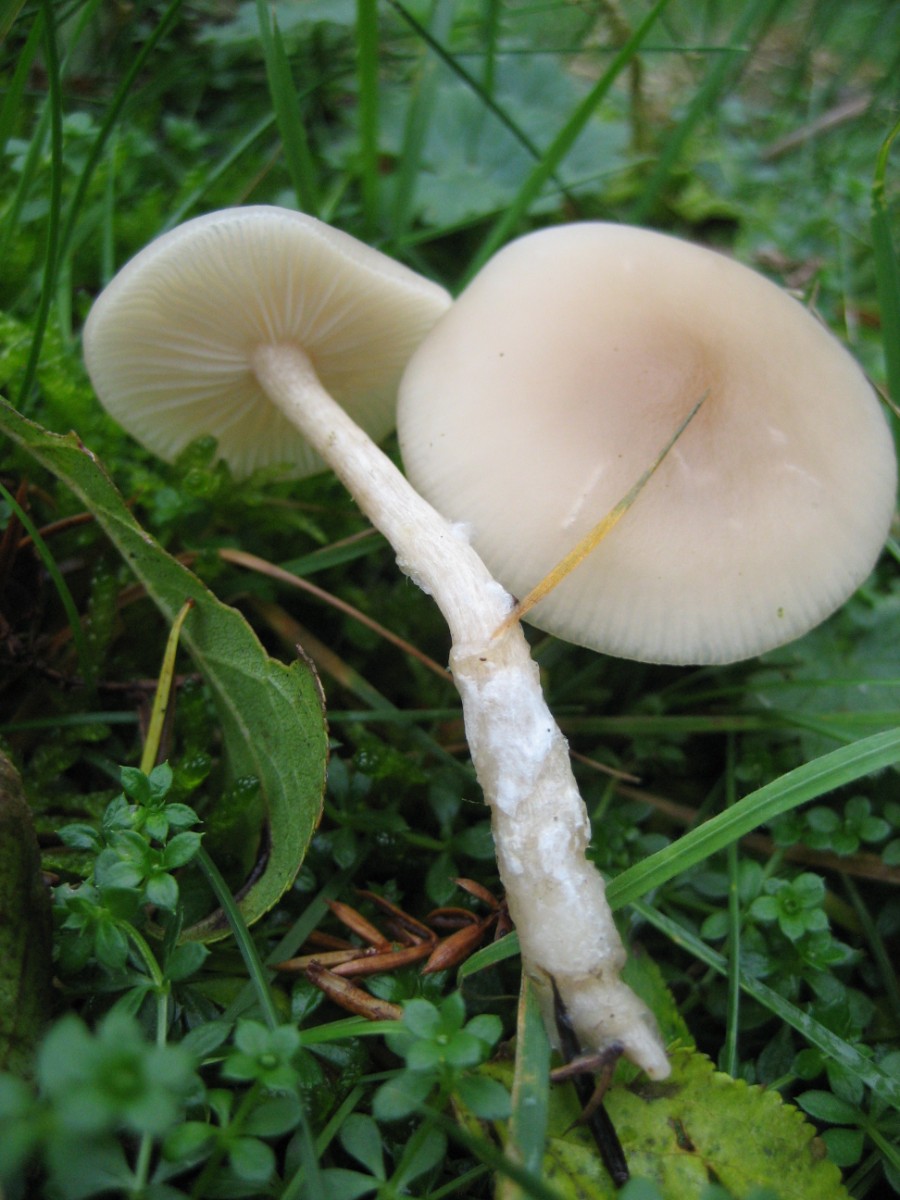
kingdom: Fungi
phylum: Basidiomycota
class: Agaricomycetes
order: Agaricales
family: Tricholomataceae
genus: Clitocybe
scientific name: Clitocybe fragrans
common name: vellugtende tragthat
